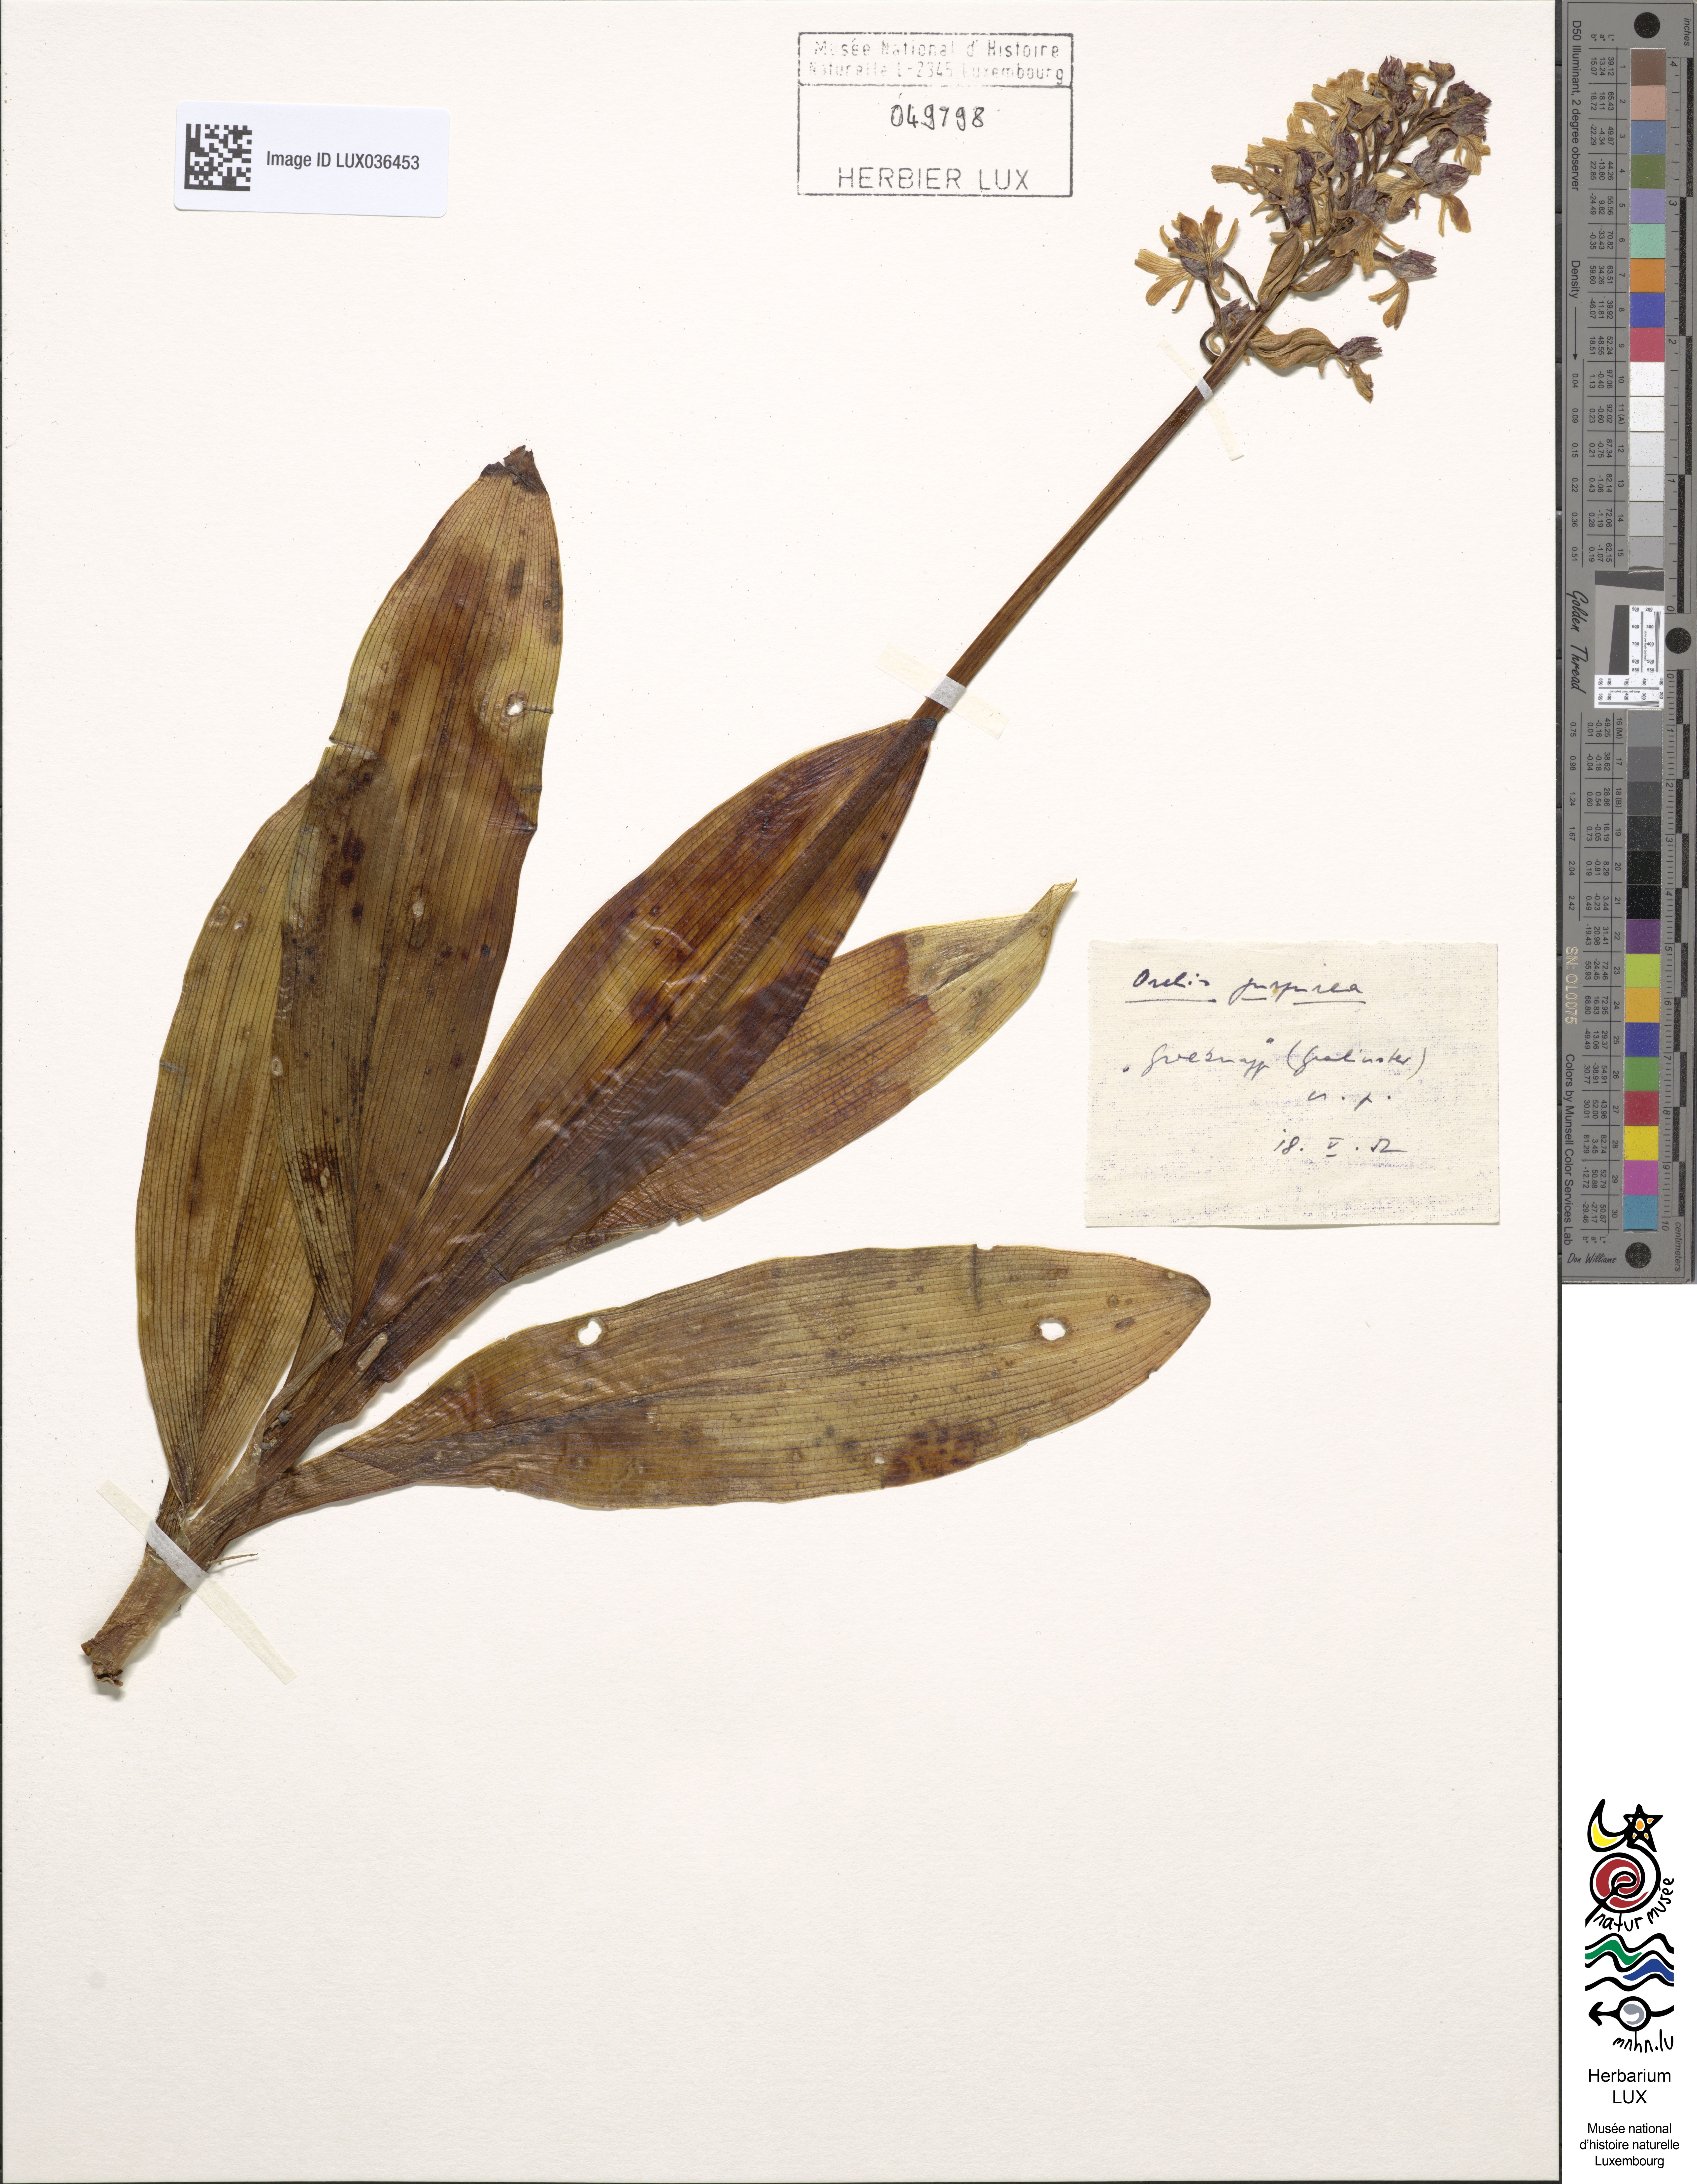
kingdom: Plantae
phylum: Tracheophyta
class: Liliopsida
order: Asparagales
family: Orchidaceae
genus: Orchis
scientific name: Orchis purpurea
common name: Lady orchid
